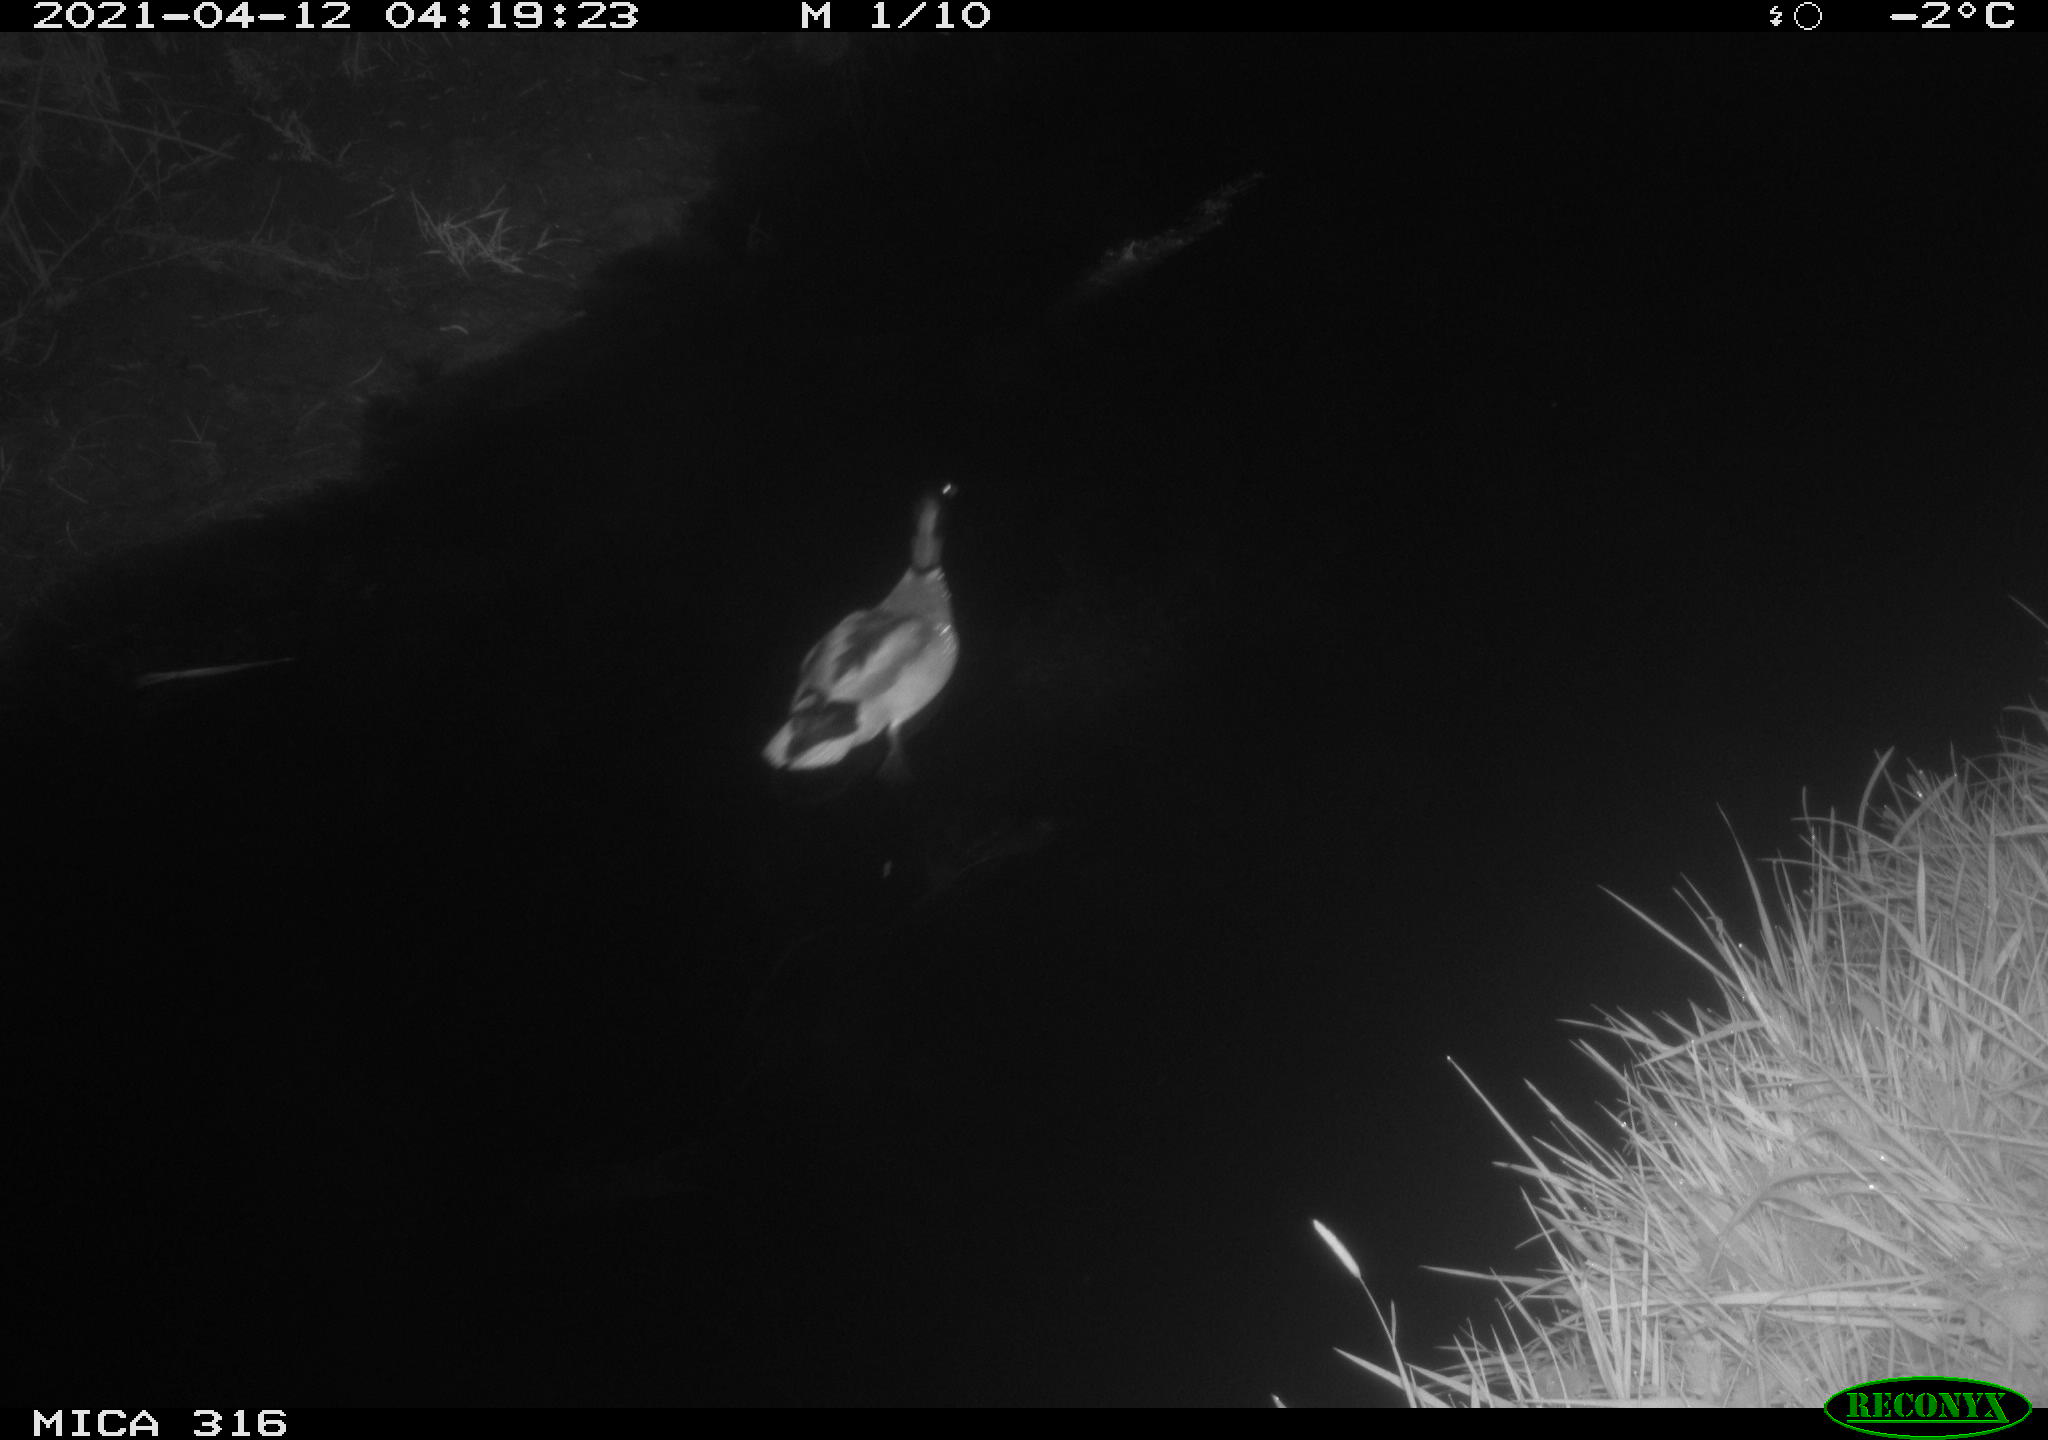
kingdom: Animalia
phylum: Chordata
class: Aves
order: Anseriformes
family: Anatidae
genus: Anas
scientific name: Anas platyrhynchos
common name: Mallard
